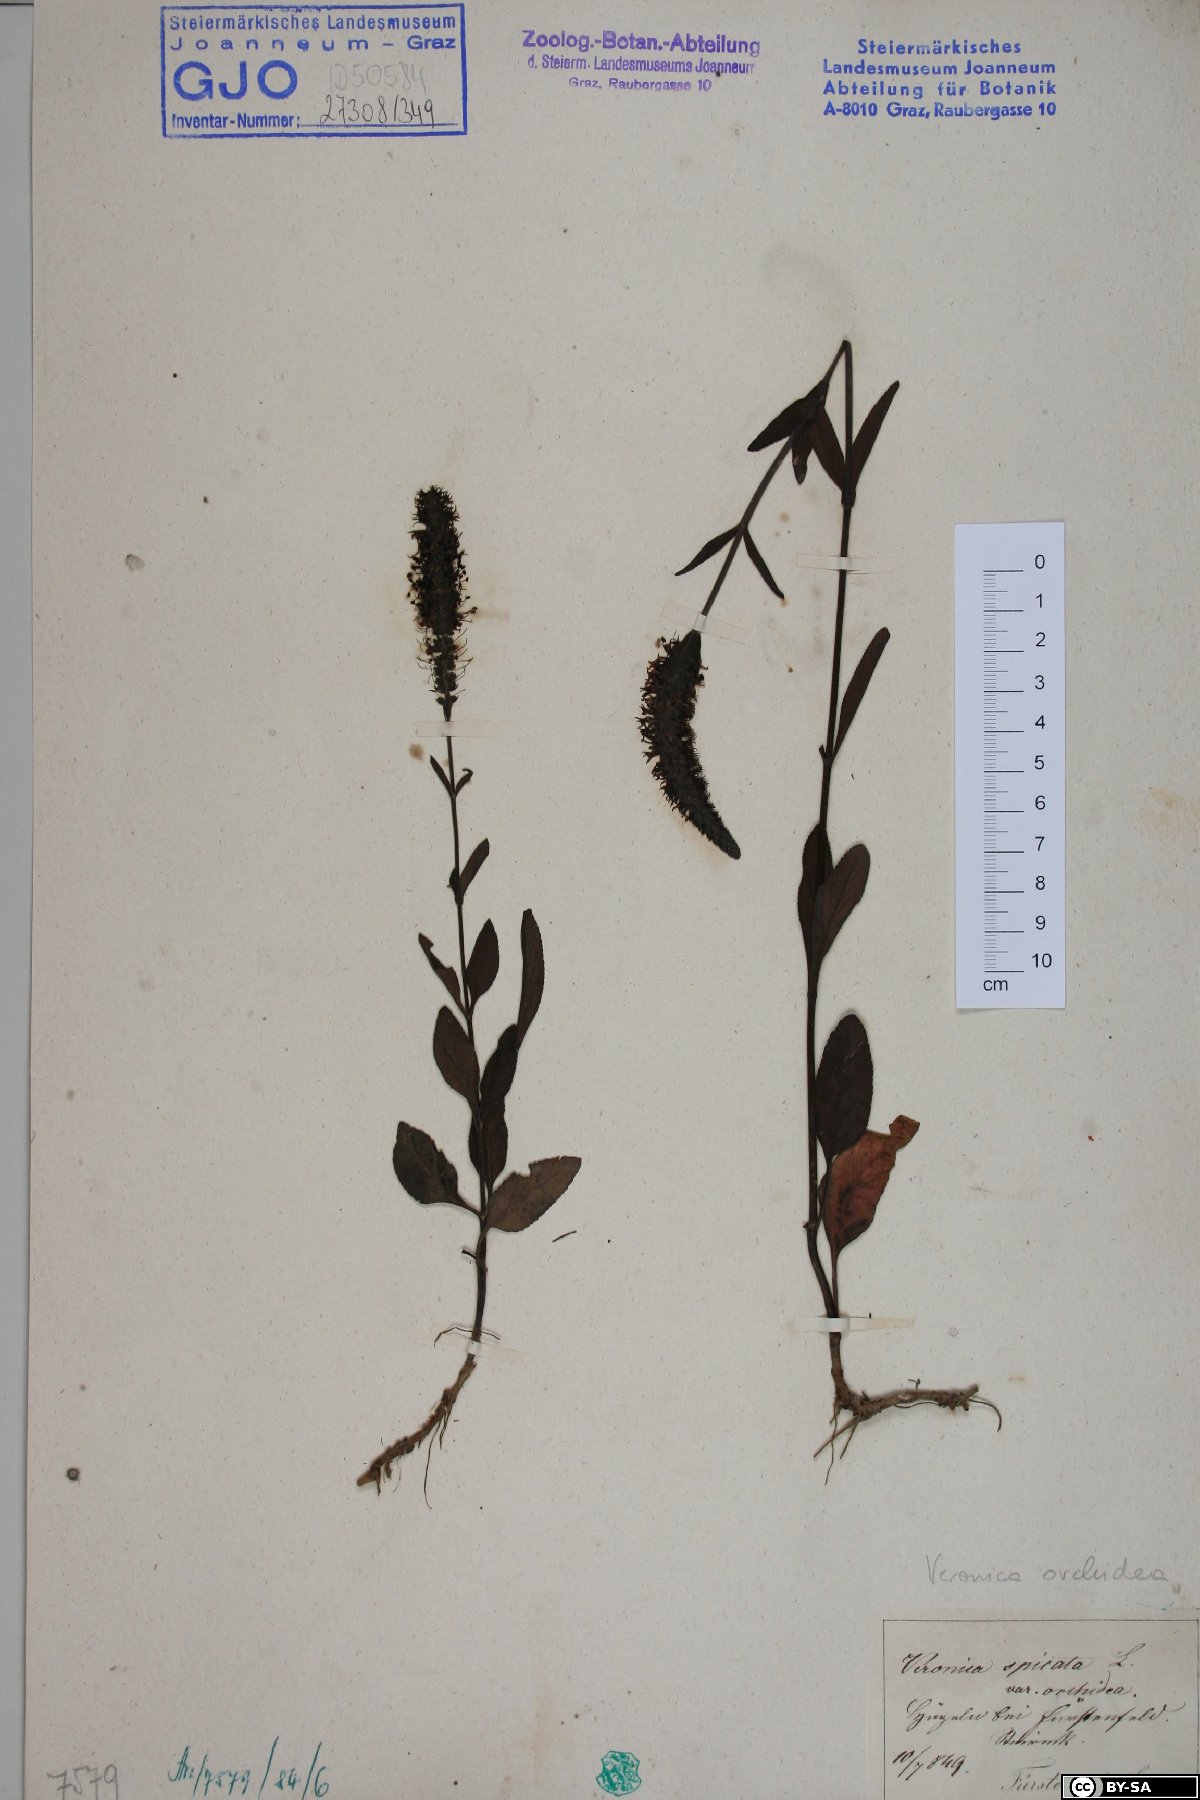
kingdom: Plantae
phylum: Tracheophyta
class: Magnoliopsida
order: Lamiales
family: Plantaginaceae
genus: Veronica
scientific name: Veronica spicata
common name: Spiked speedwell
